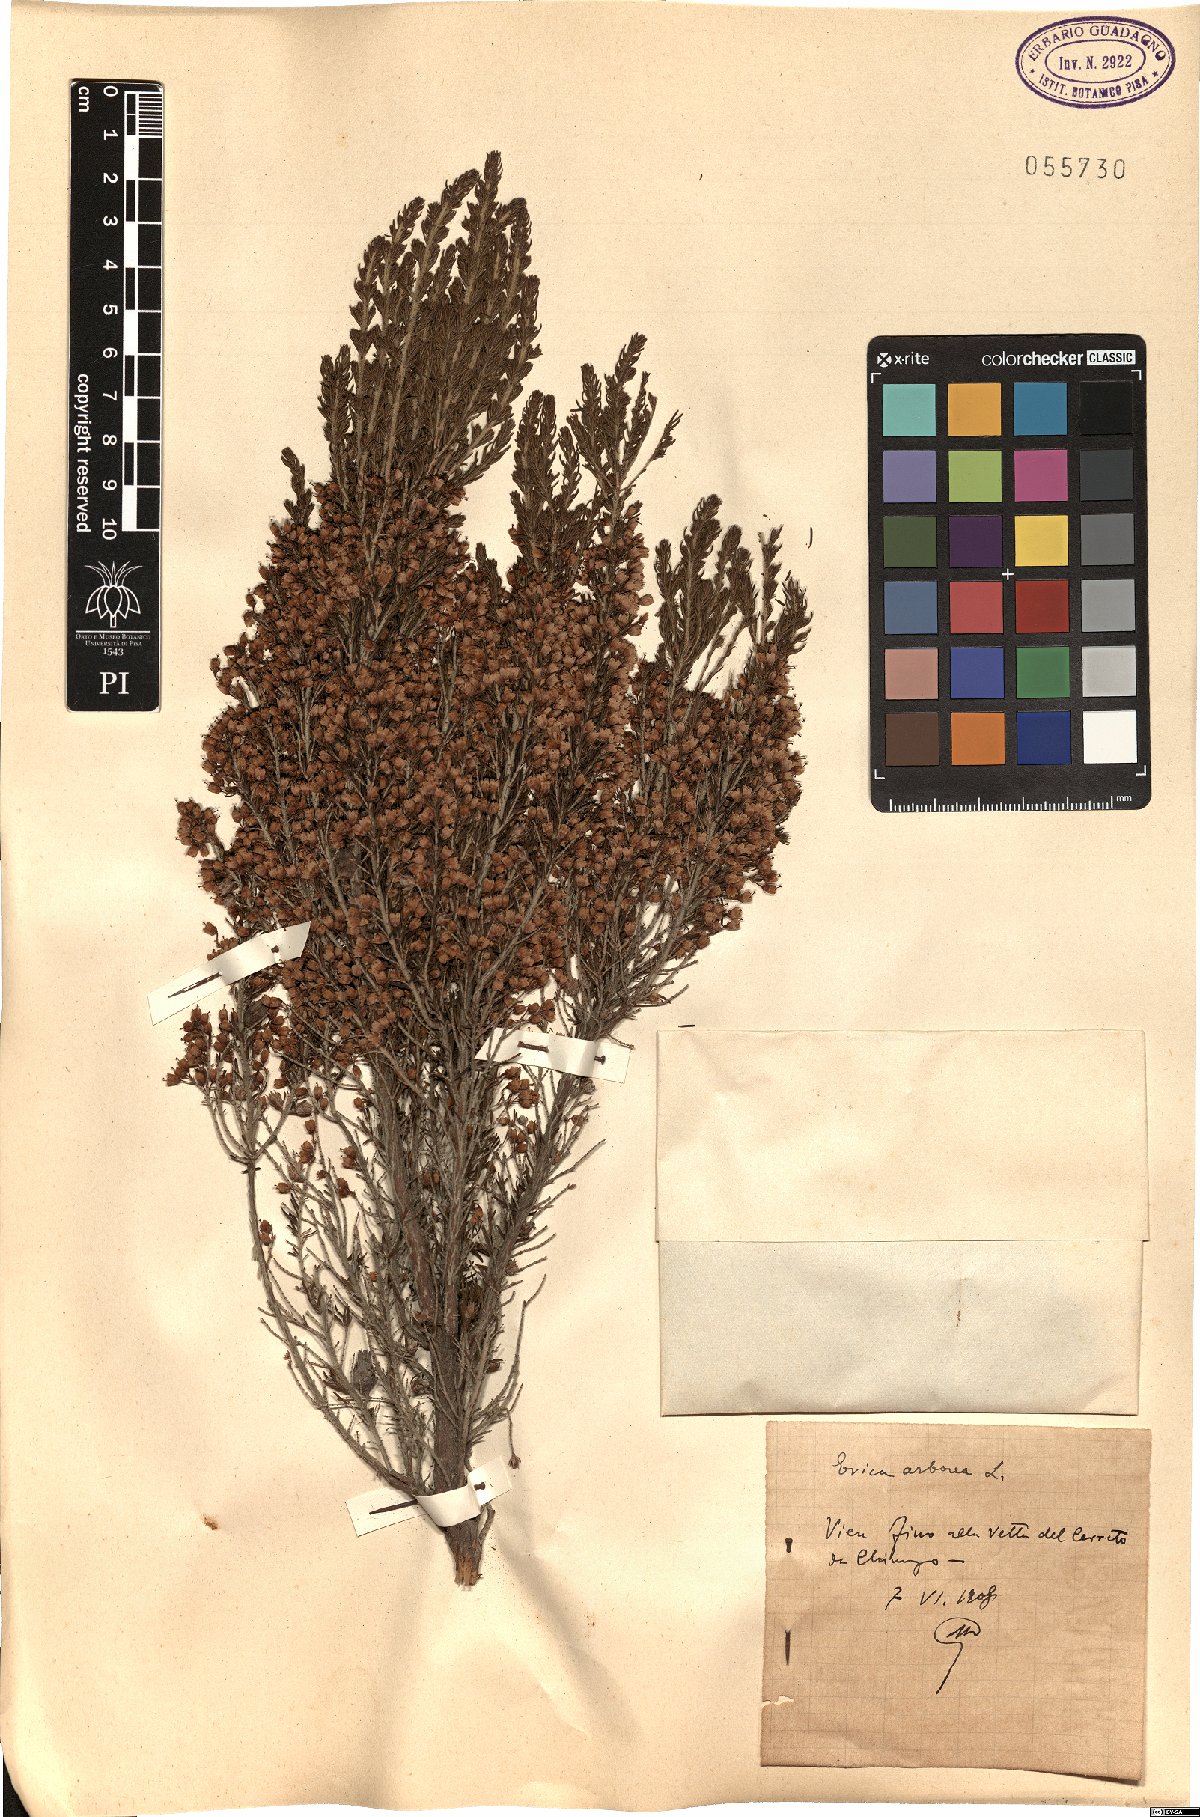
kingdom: Plantae
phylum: Tracheophyta
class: Magnoliopsida
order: Ericales
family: Ericaceae
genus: Erica
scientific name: Erica arborea
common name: Tree heath
